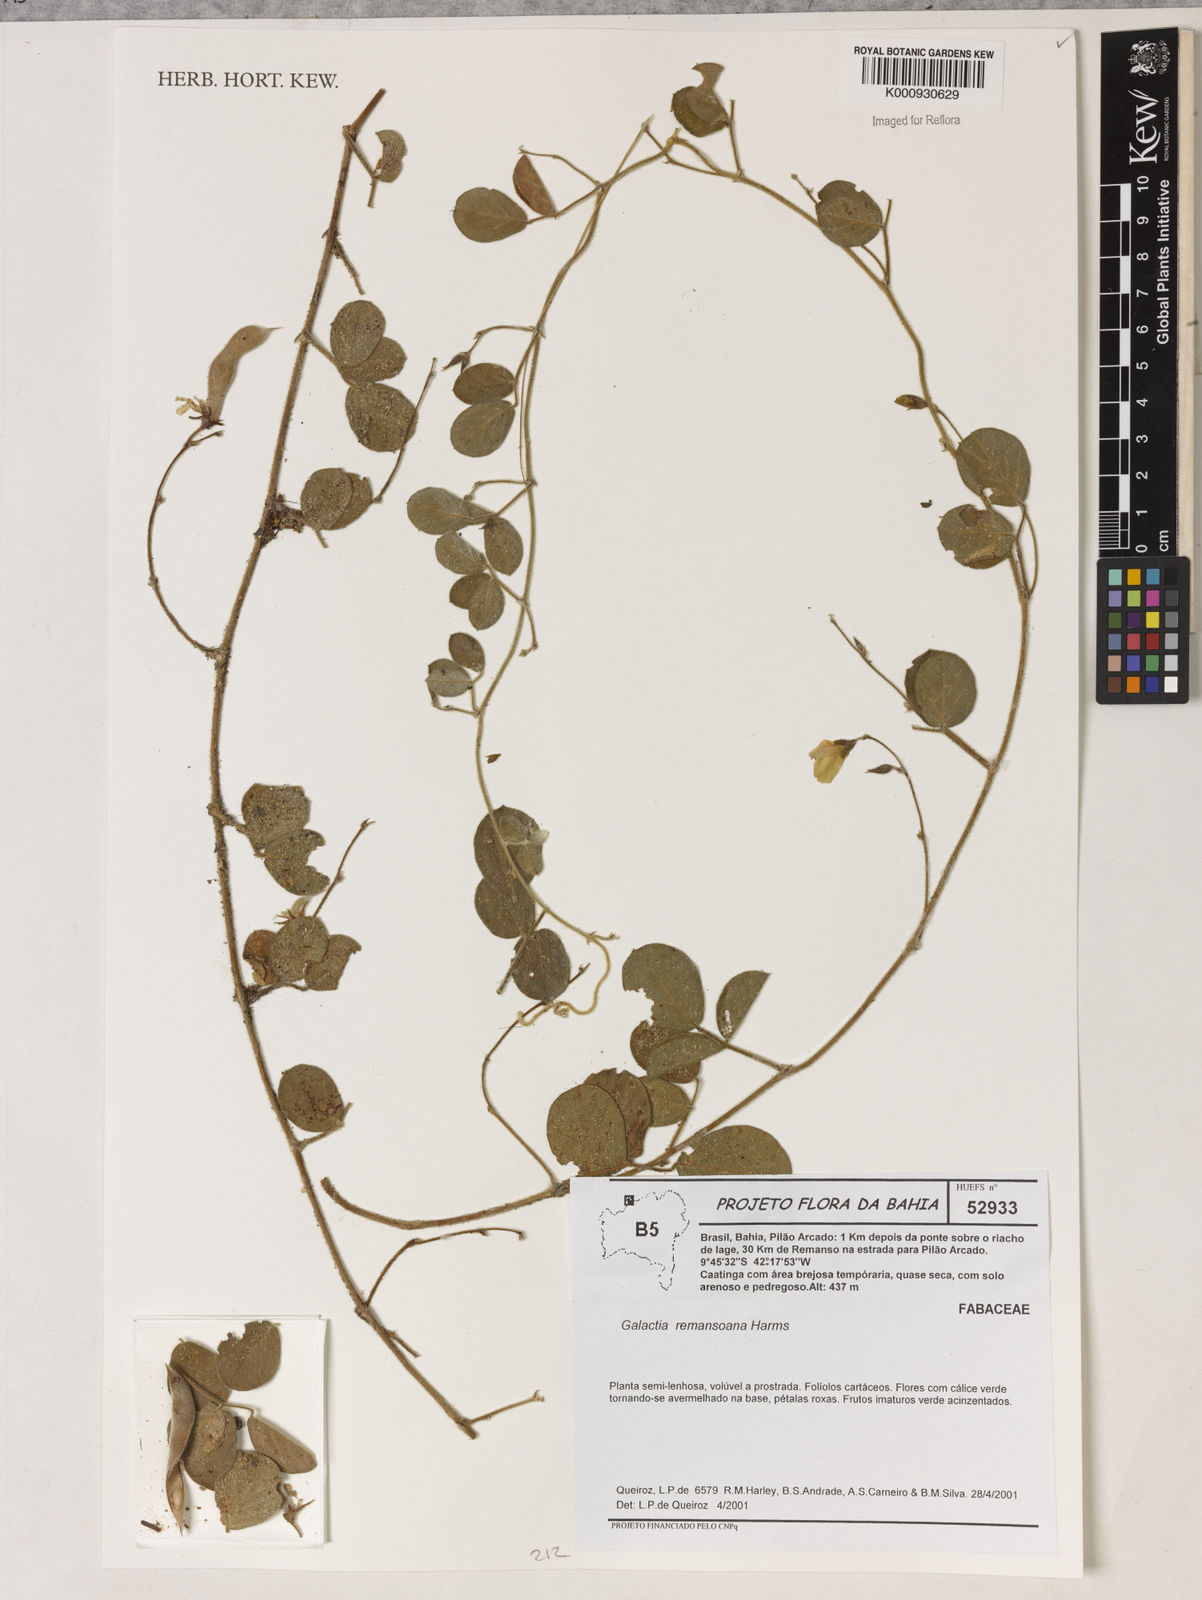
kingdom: Plantae
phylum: Tracheophyta
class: Magnoliopsida
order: Fabales
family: Fabaceae
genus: Galactia
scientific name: Galactia remansoana
